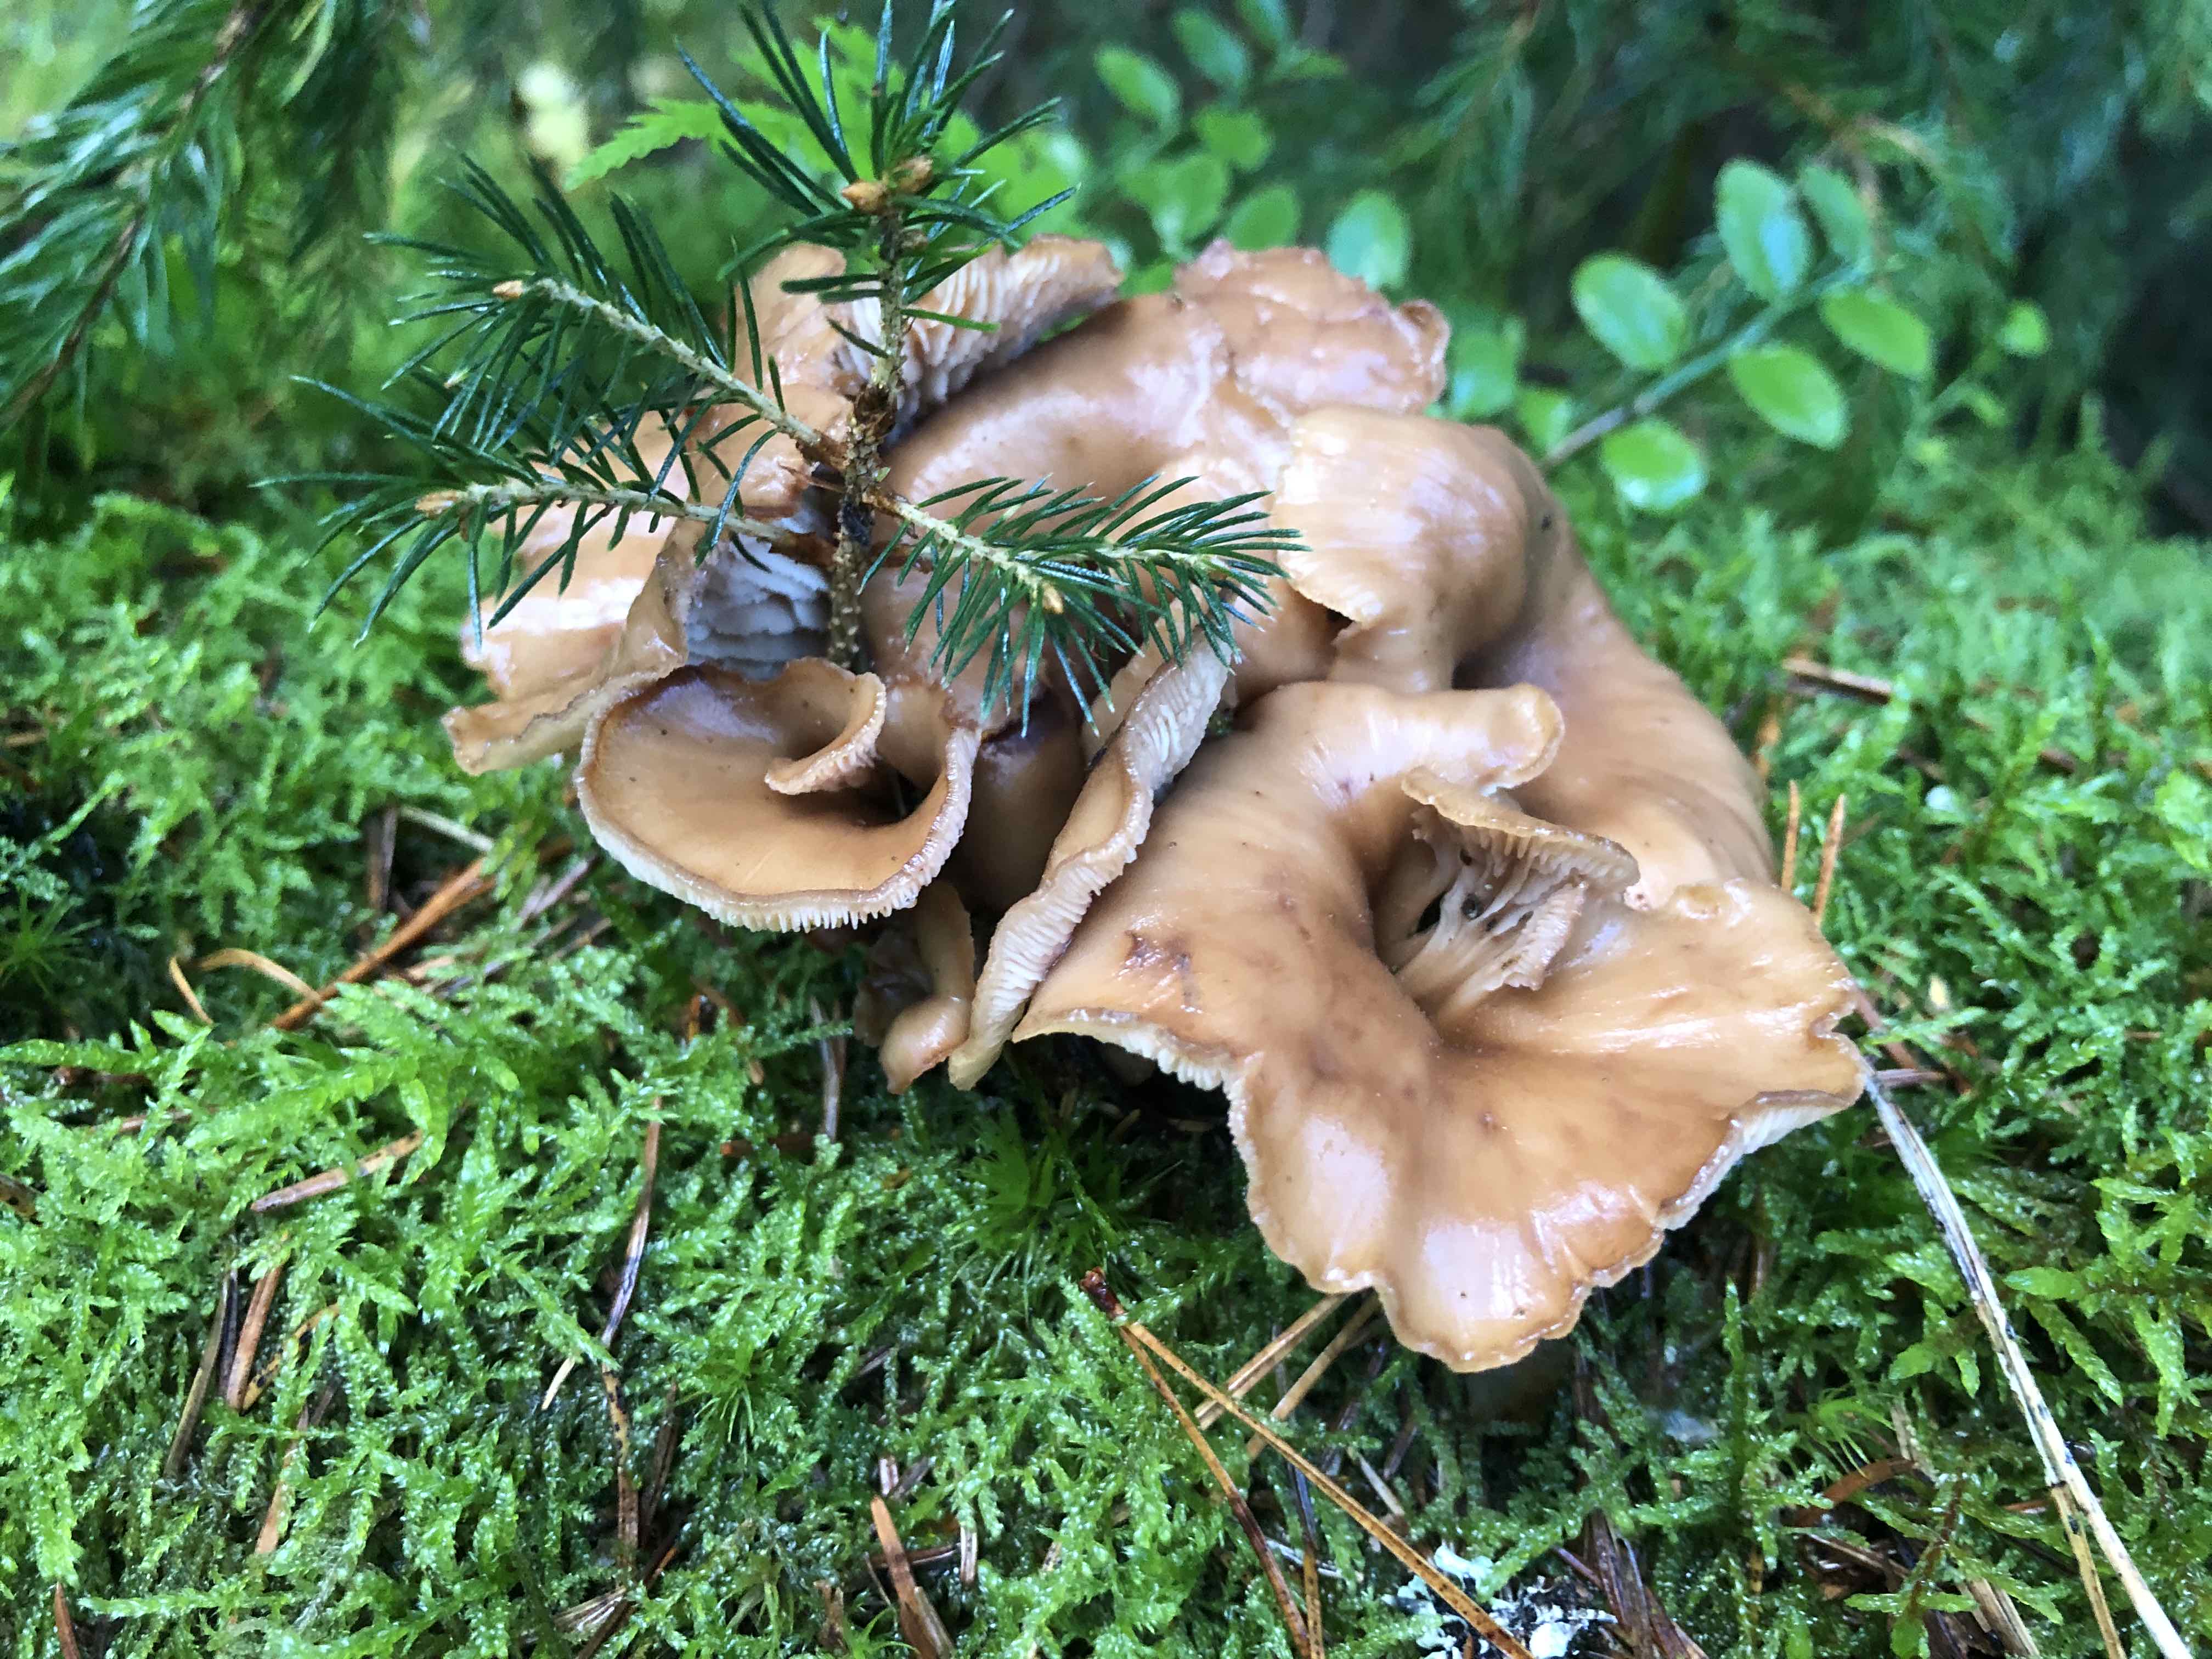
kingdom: Fungi
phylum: Basidiomycota
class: Agaricomycetes
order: Russulales
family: Auriscalpiaceae
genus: Lentinellus
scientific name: Lentinellus cochleatus
